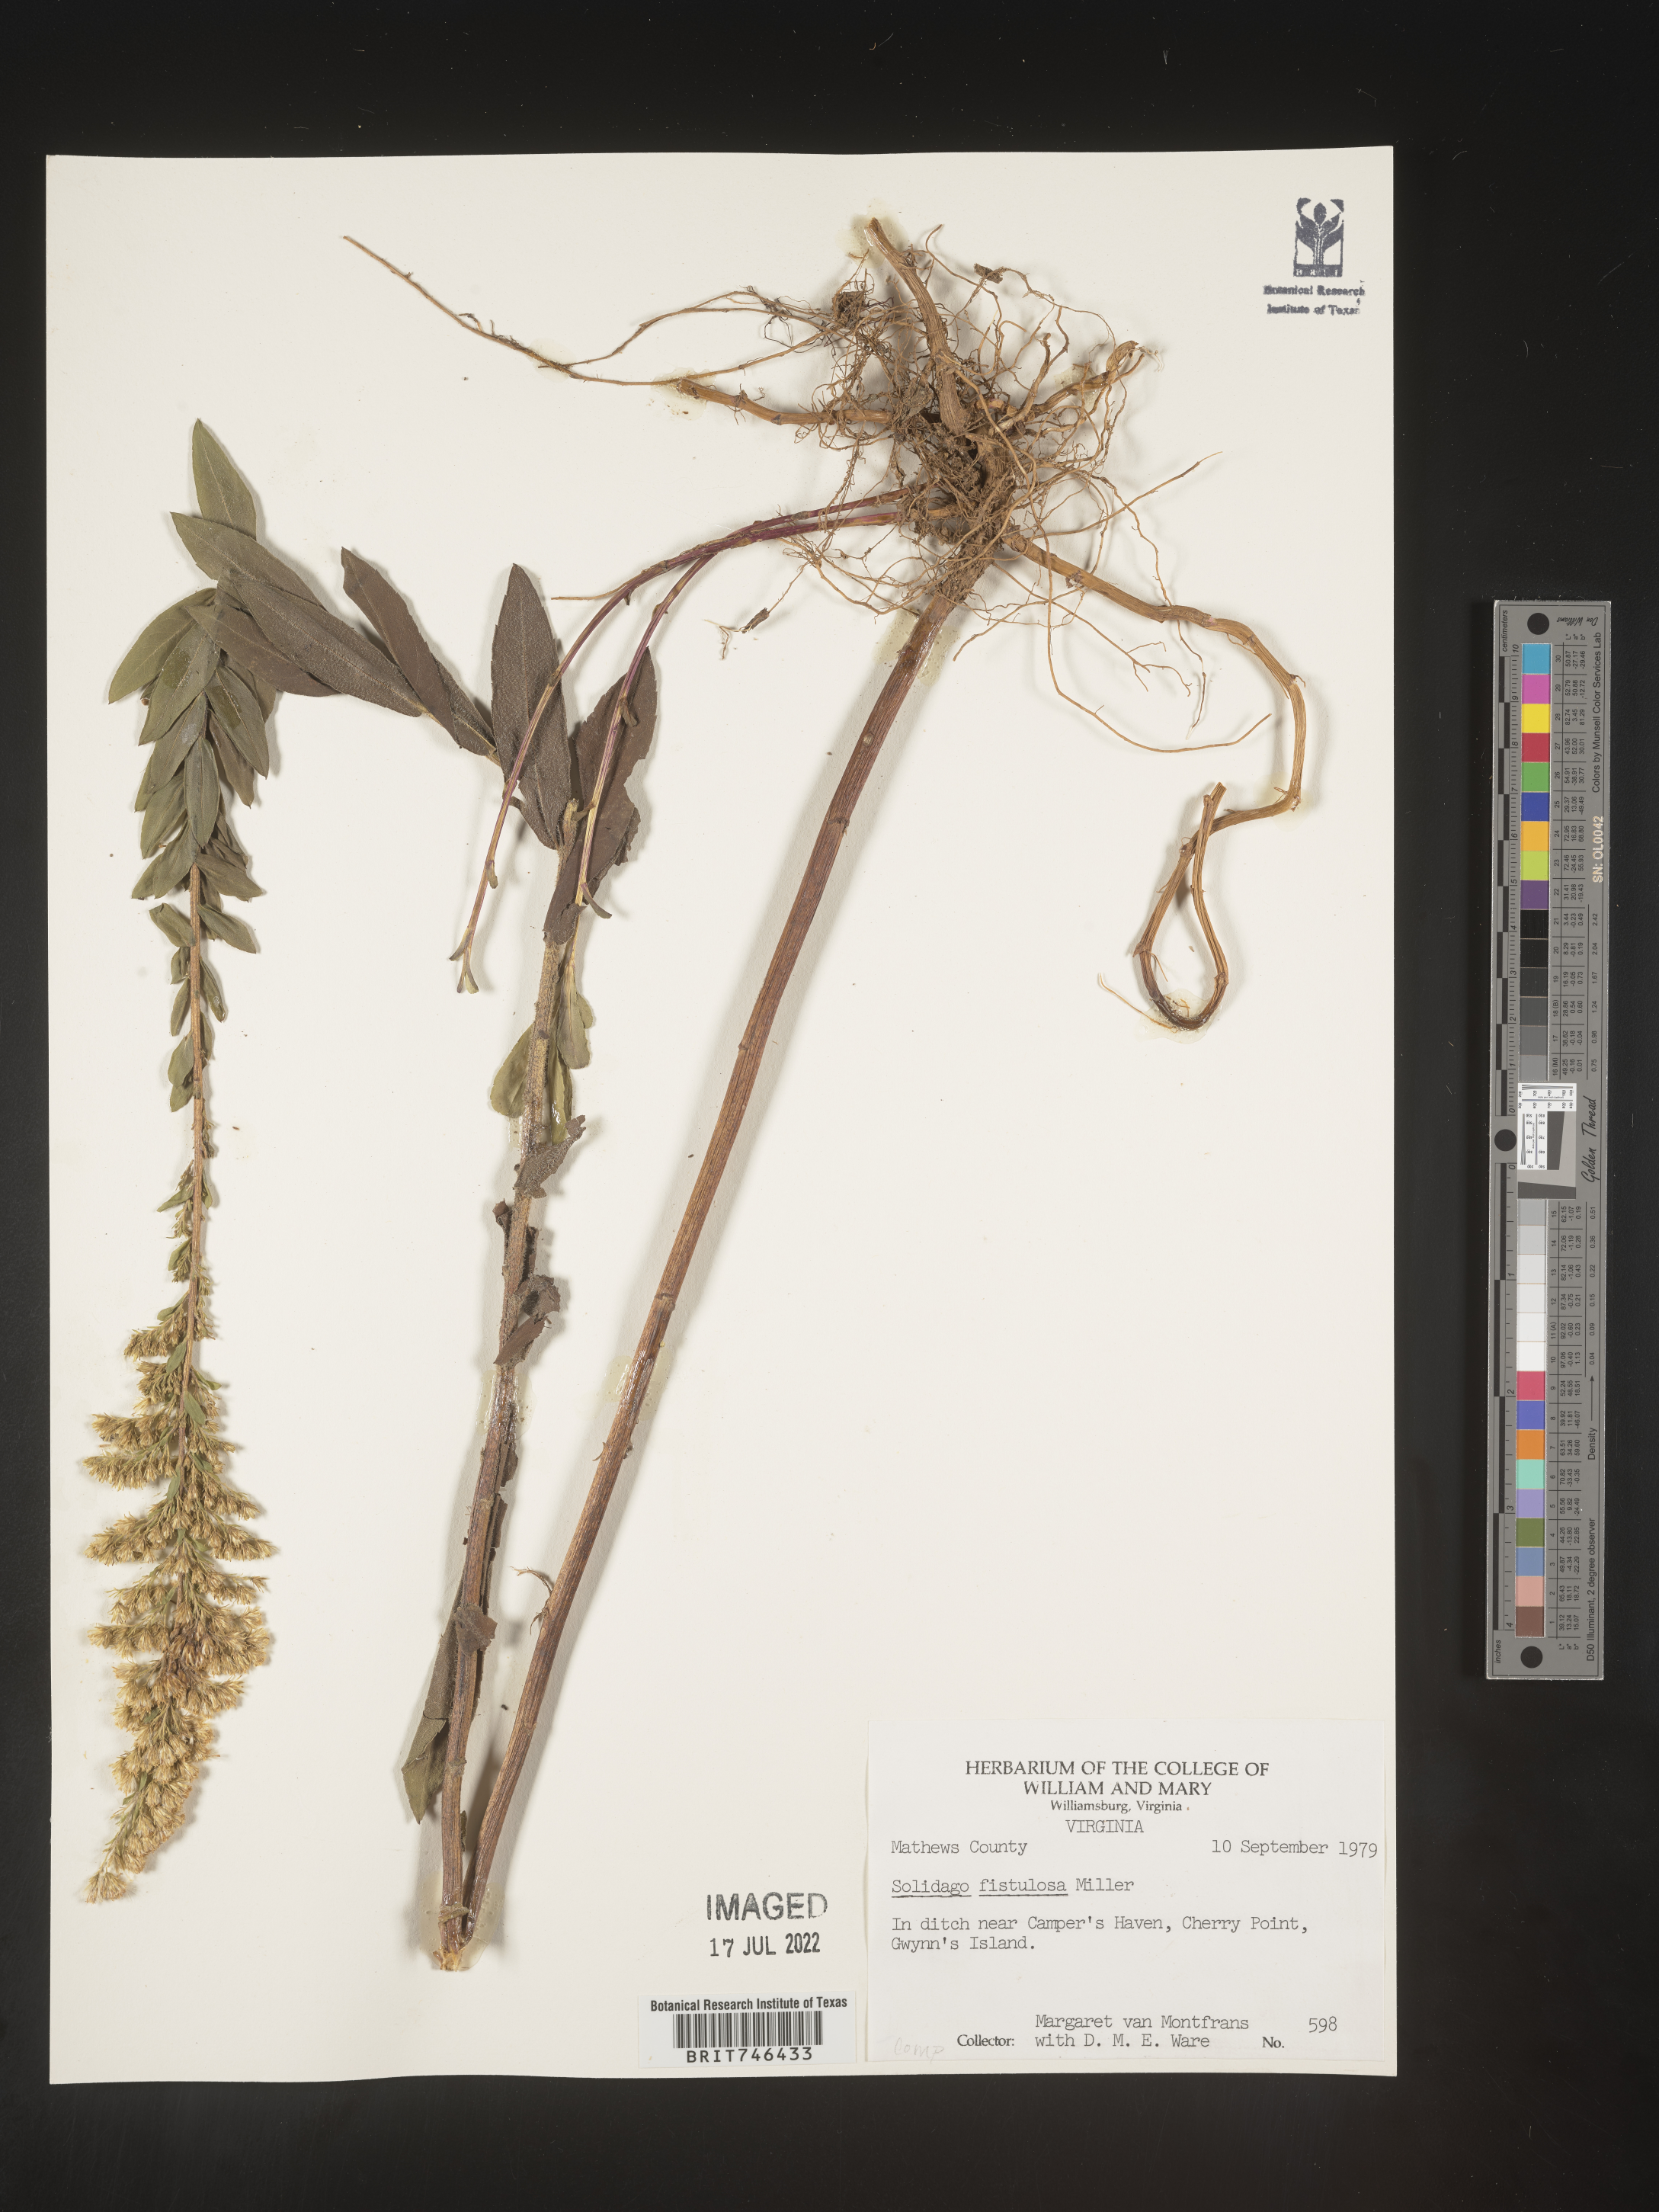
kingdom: Plantae
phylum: Tracheophyta
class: Magnoliopsida
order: Asterales
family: Asteraceae
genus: Solidago
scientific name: Solidago fistulosa
